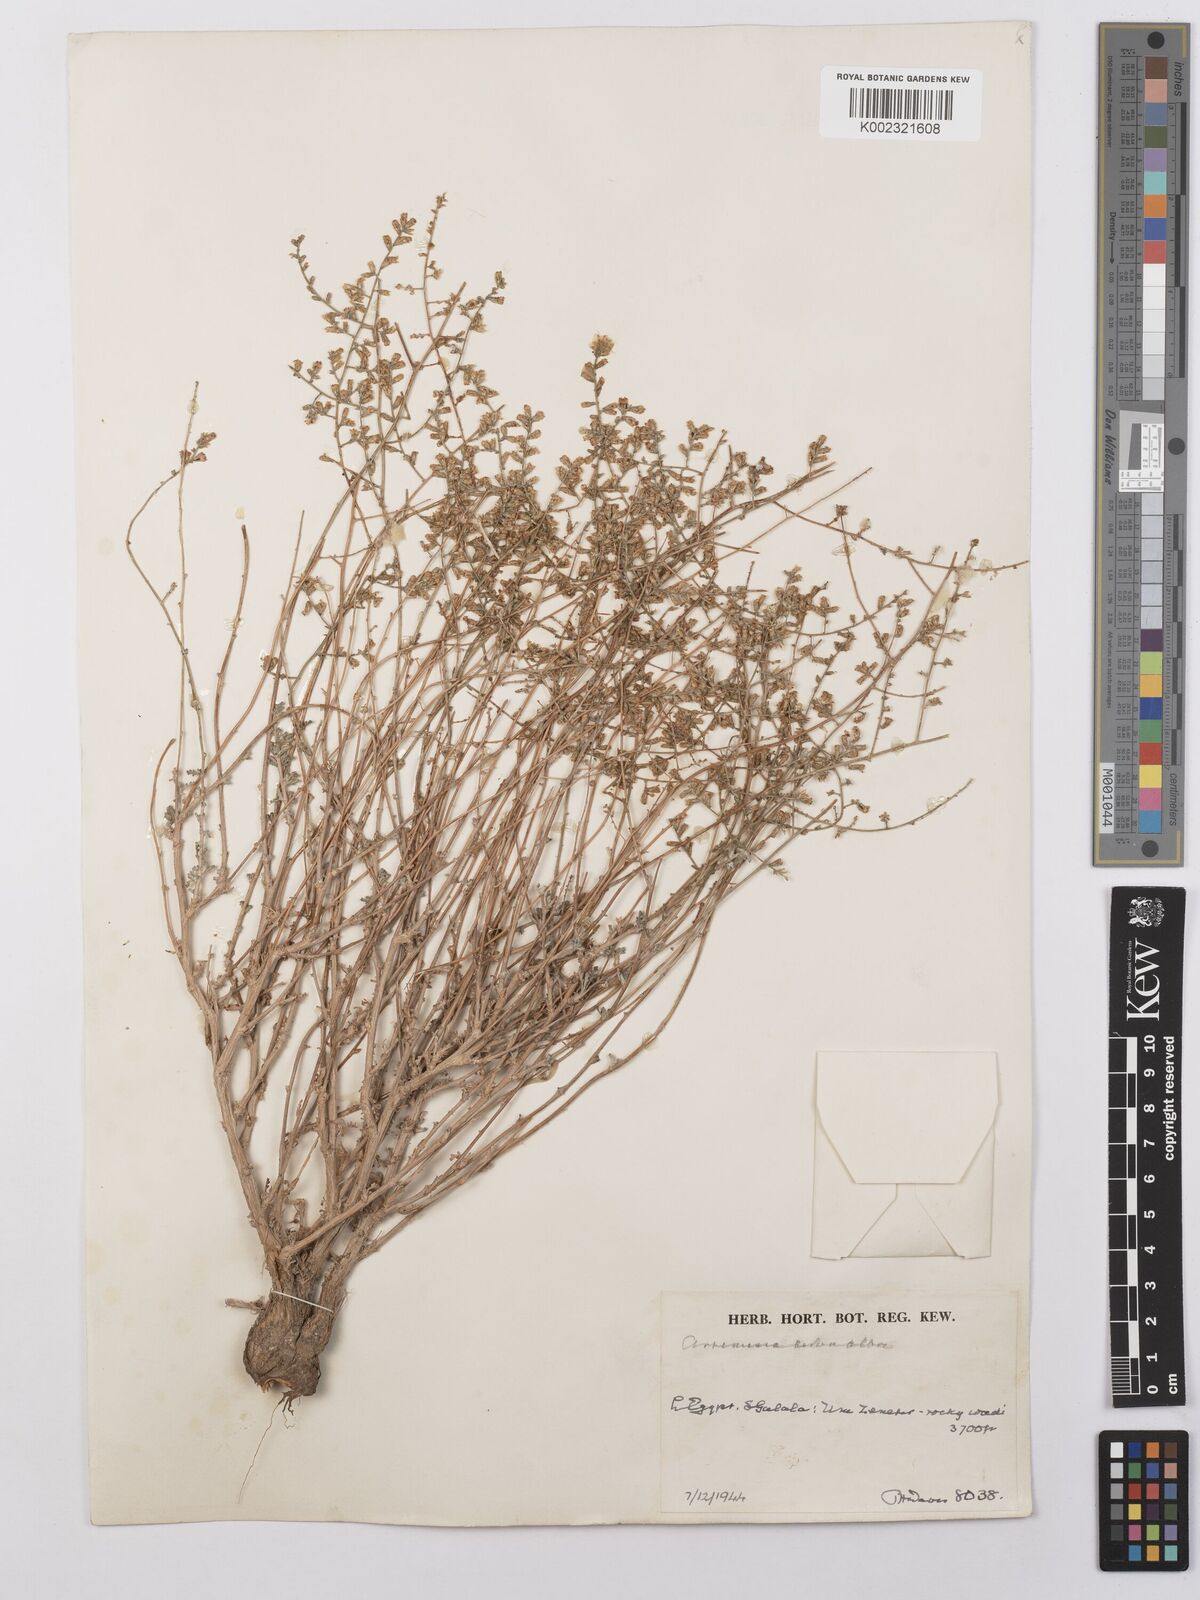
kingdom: Plantae
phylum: Tracheophyta
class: Magnoliopsida
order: Asterales
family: Asteraceae
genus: Artemisia
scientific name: Artemisia herba-alba
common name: White wormwood
